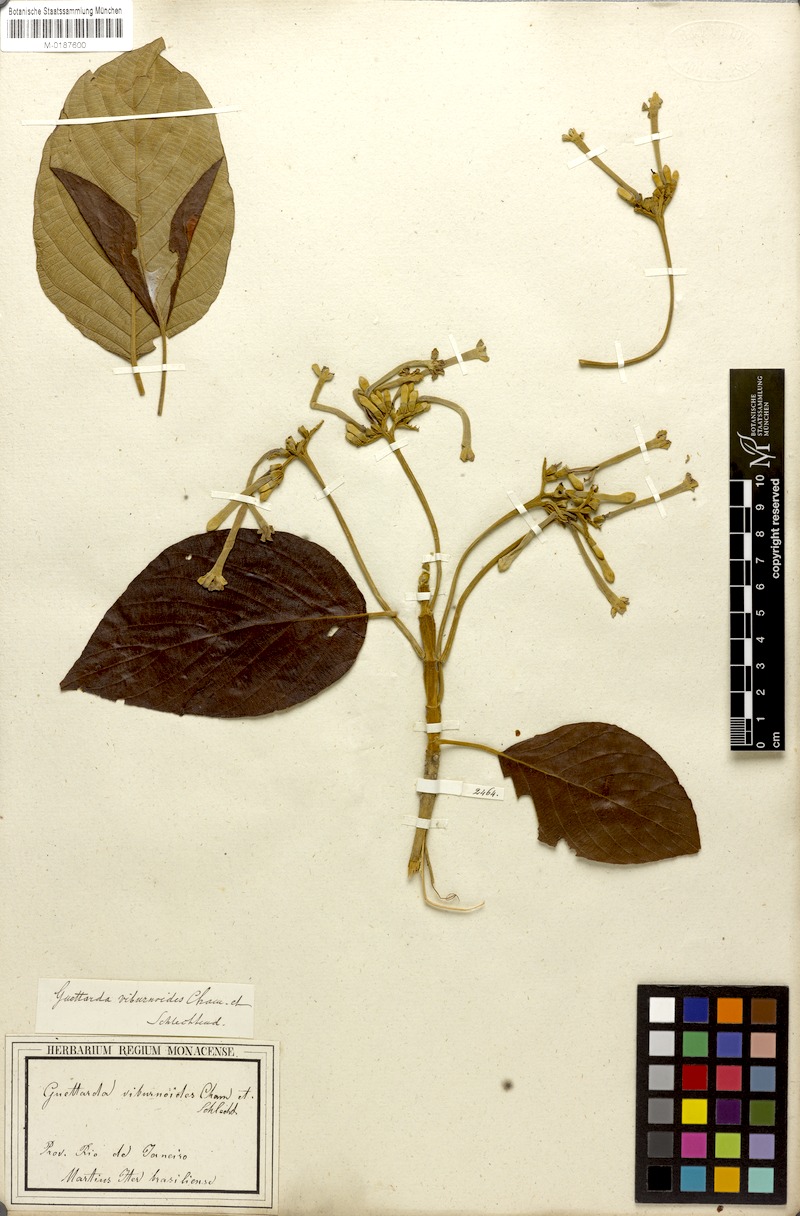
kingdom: Plantae
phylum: Tracheophyta
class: Magnoliopsida
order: Gentianales
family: Rubiaceae
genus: Guettarda
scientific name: Guettarda viburnoides
